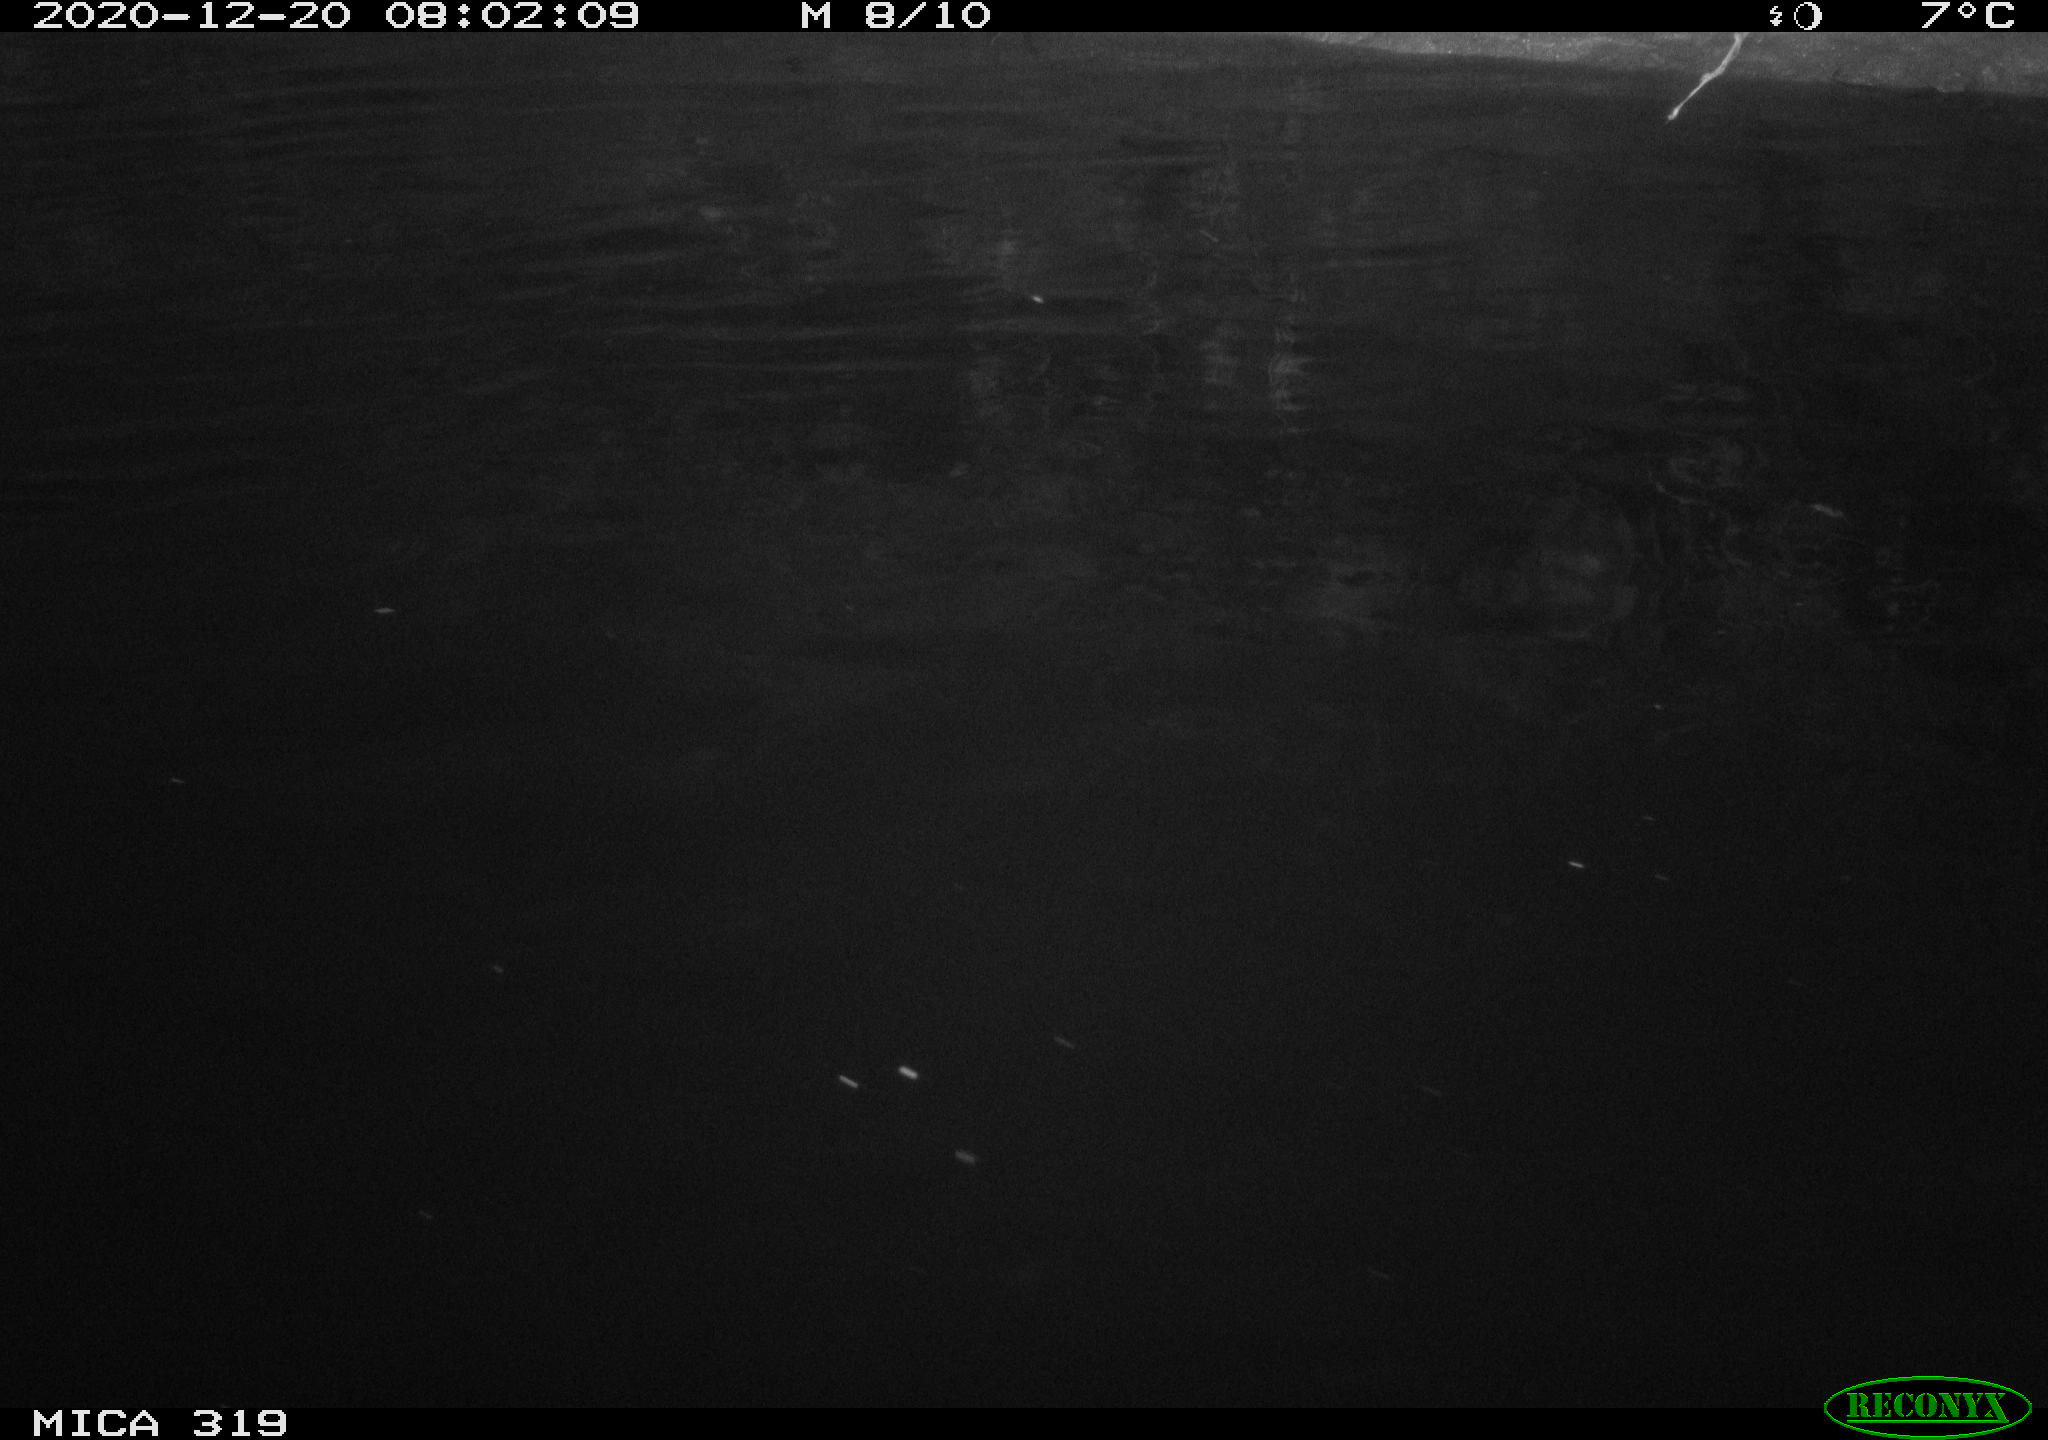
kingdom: Animalia
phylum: Chordata
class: Aves
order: Anseriformes
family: Anatidae
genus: Anas
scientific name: Anas platyrhynchos
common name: Mallard
